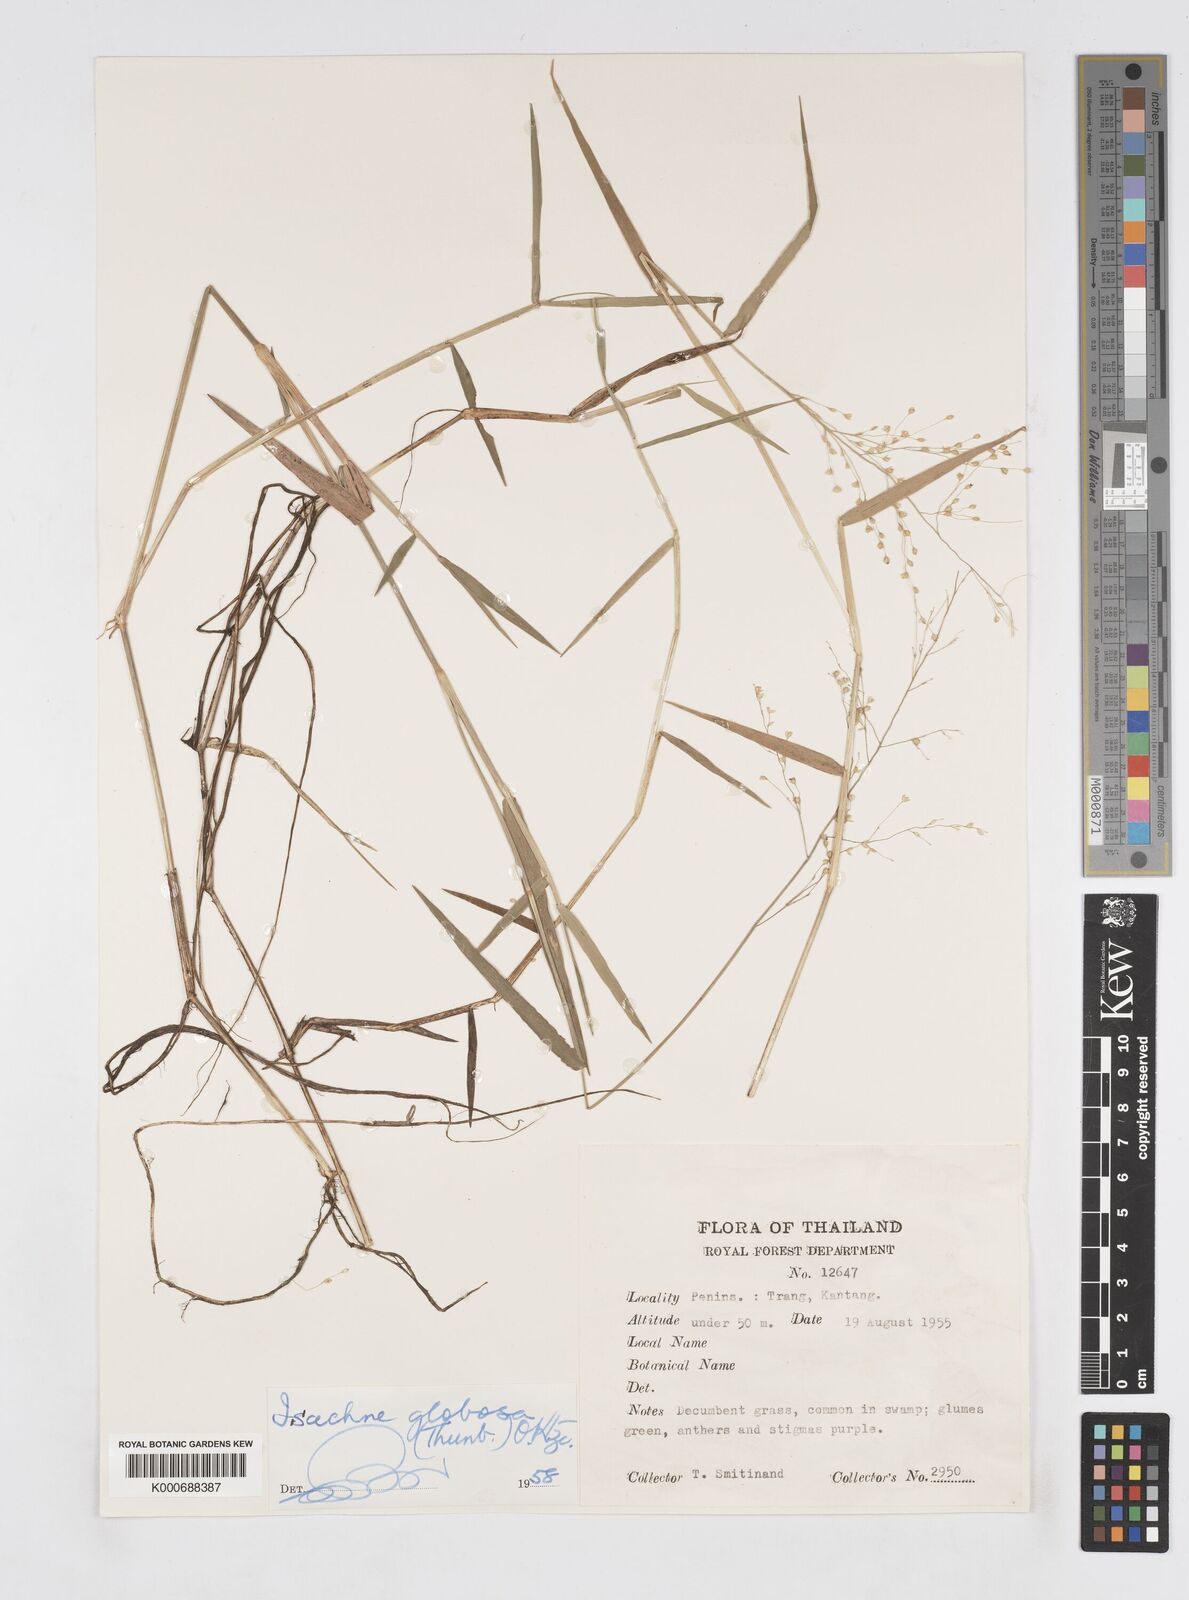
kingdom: Plantae
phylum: Tracheophyta
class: Liliopsida
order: Poales
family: Poaceae
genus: Isachne
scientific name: Isachne globosa
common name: Swamp millet
